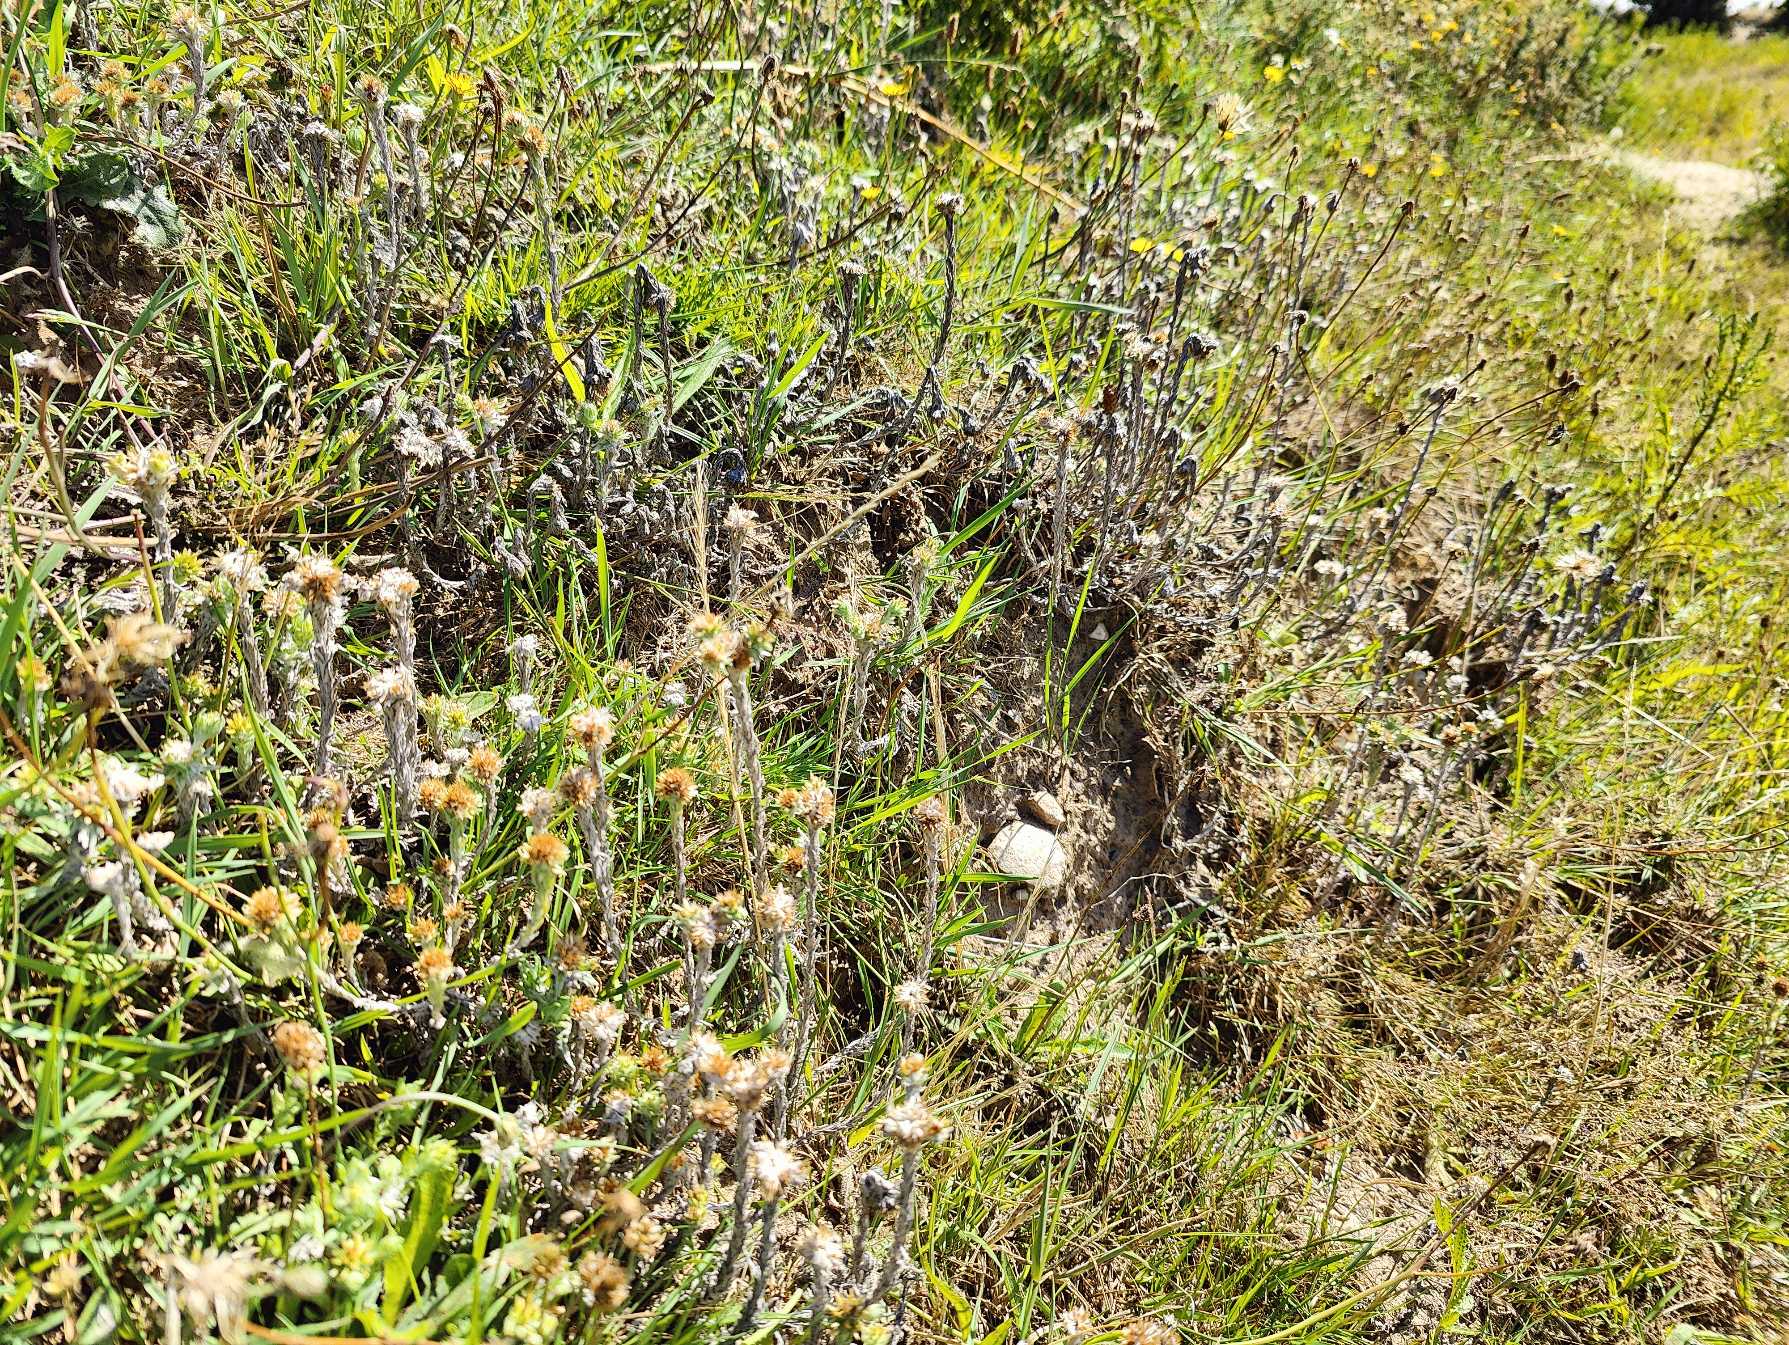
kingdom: Plantae
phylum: Tracheophyta
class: Magnoliopsida
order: Asterales
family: Asteraceae
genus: Filago
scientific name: Filago germanica
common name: Kugle-museurt
